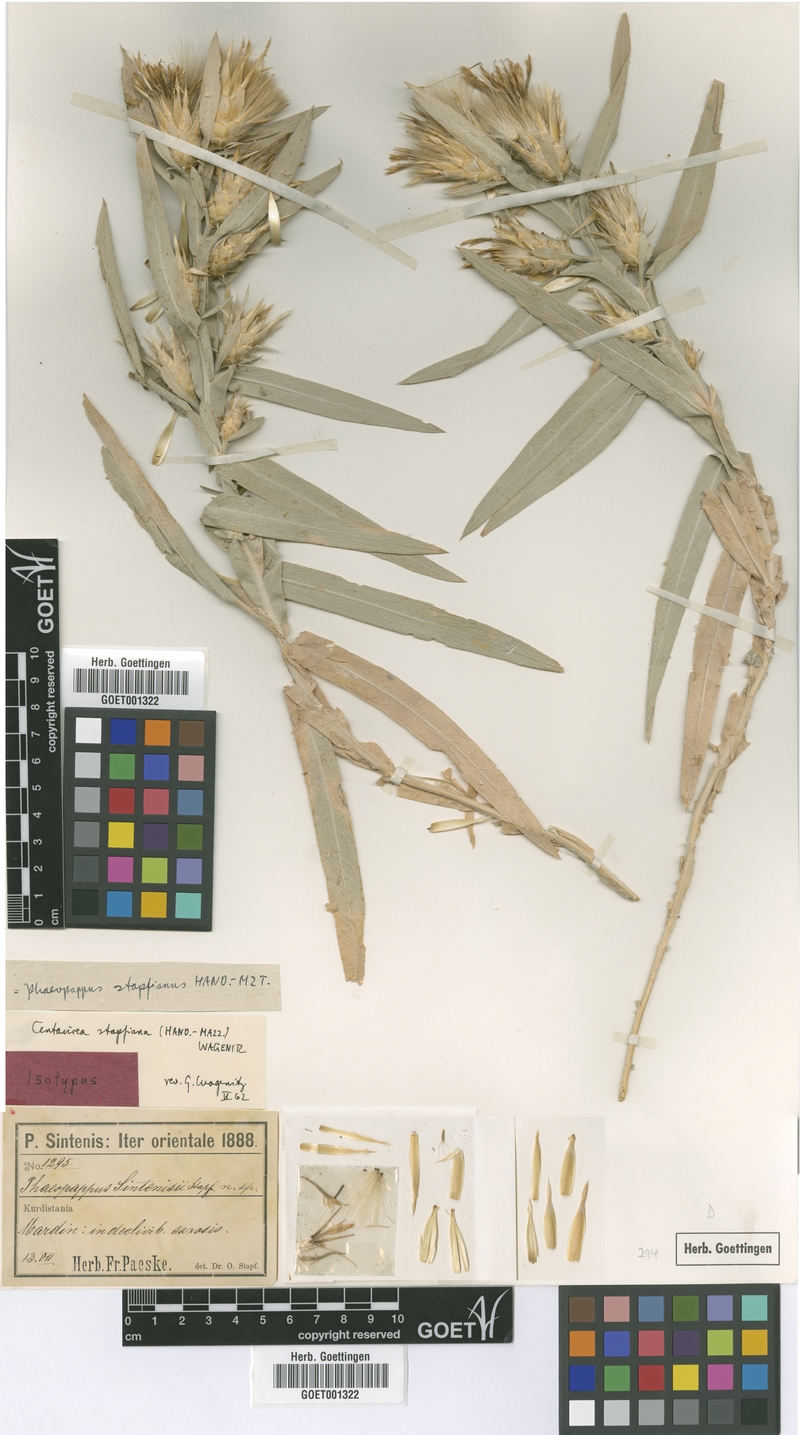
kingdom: Plantae
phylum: Tracheophyta
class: Magnoliopsida
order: Asterales
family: Asteraceae
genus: Centaurea
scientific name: Centaurea stapfiana
